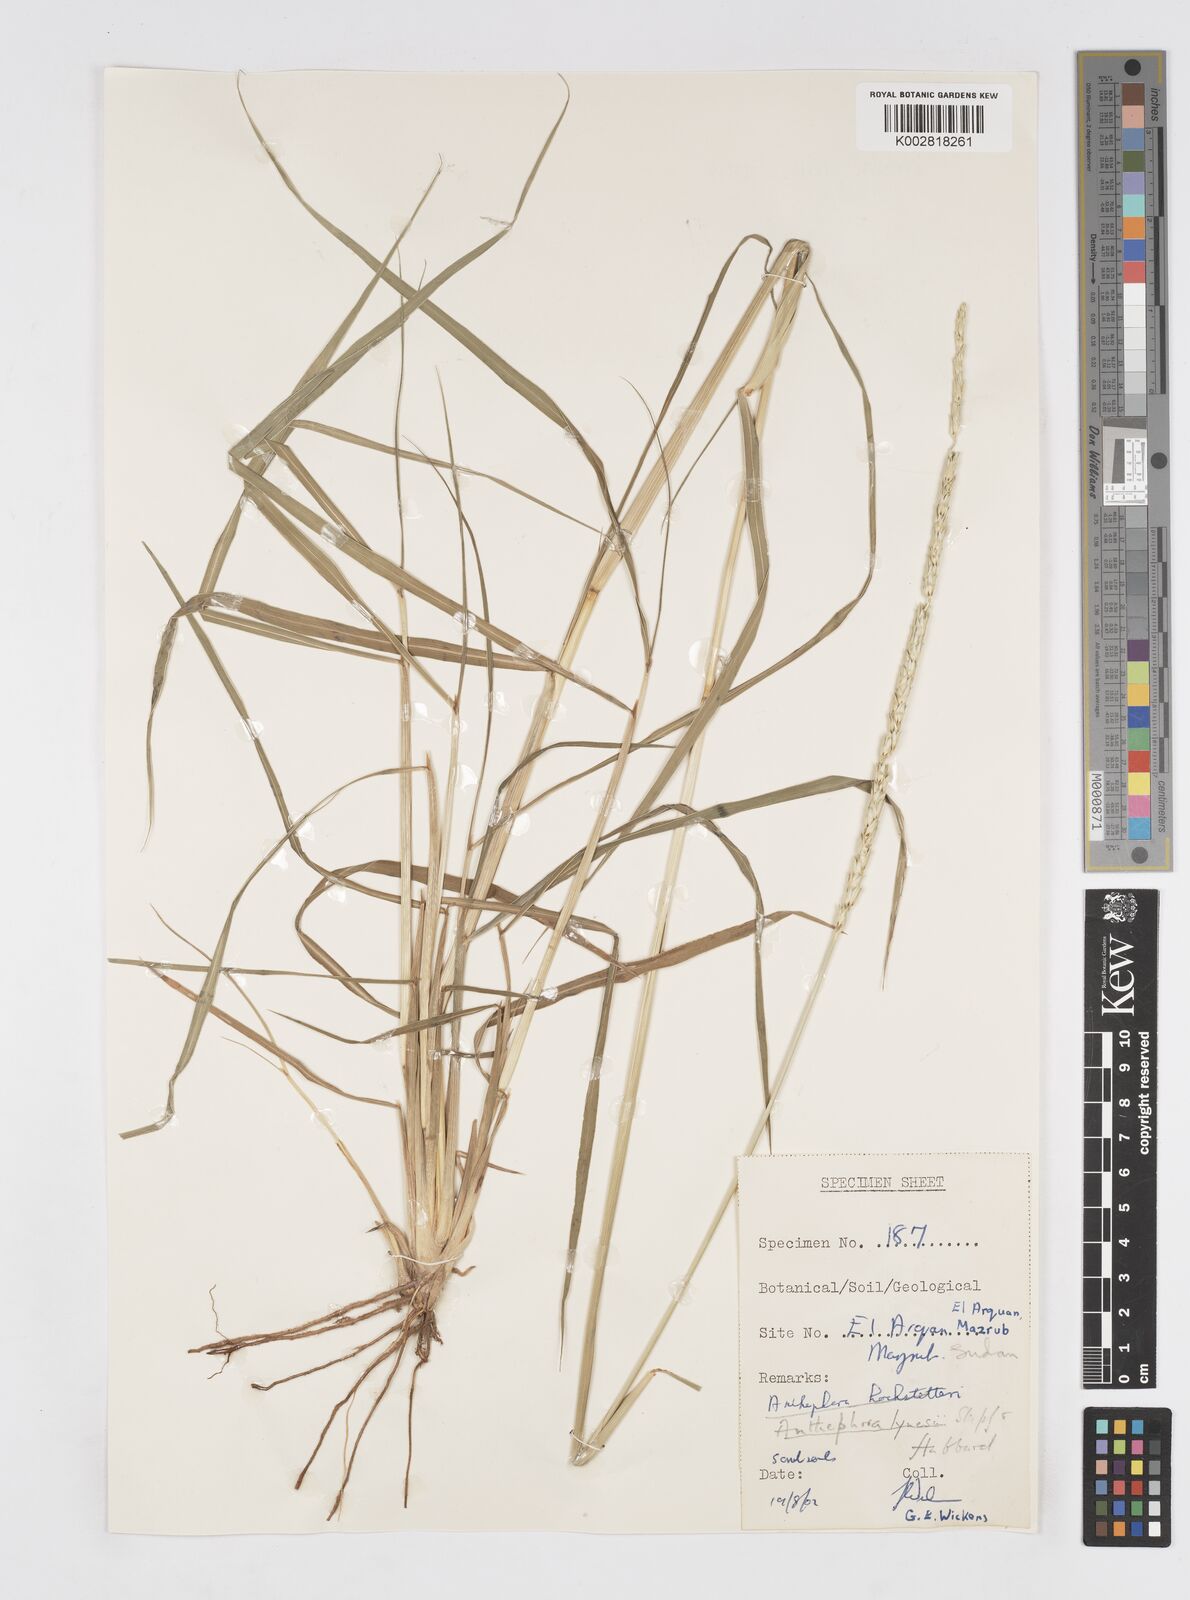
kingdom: Plantae
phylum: Tracheophyta
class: Liliopsida
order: Poales
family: Poaceae
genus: Anthephora
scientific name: Anthephora nigritana
